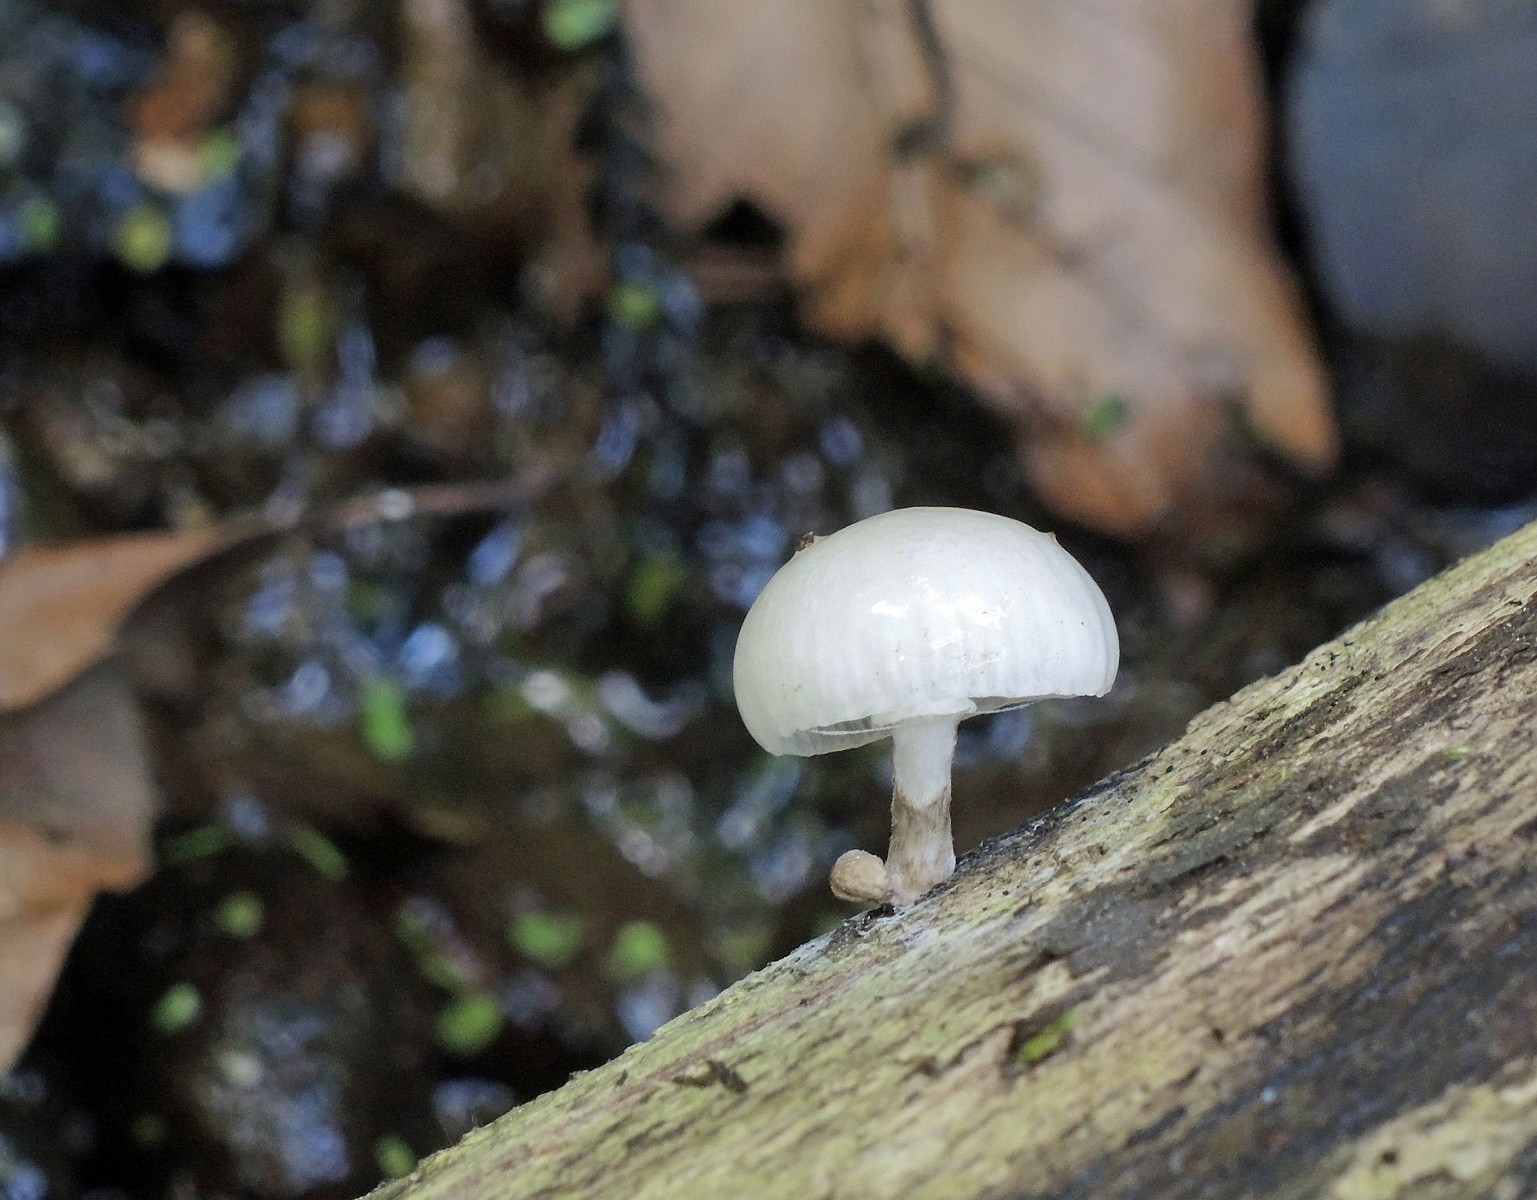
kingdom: Fungi
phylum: Basidiomycota
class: Agaricomycetes
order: Agaricales
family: Physalacriaceae
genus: Mucidula
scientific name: Mucidula mucida
